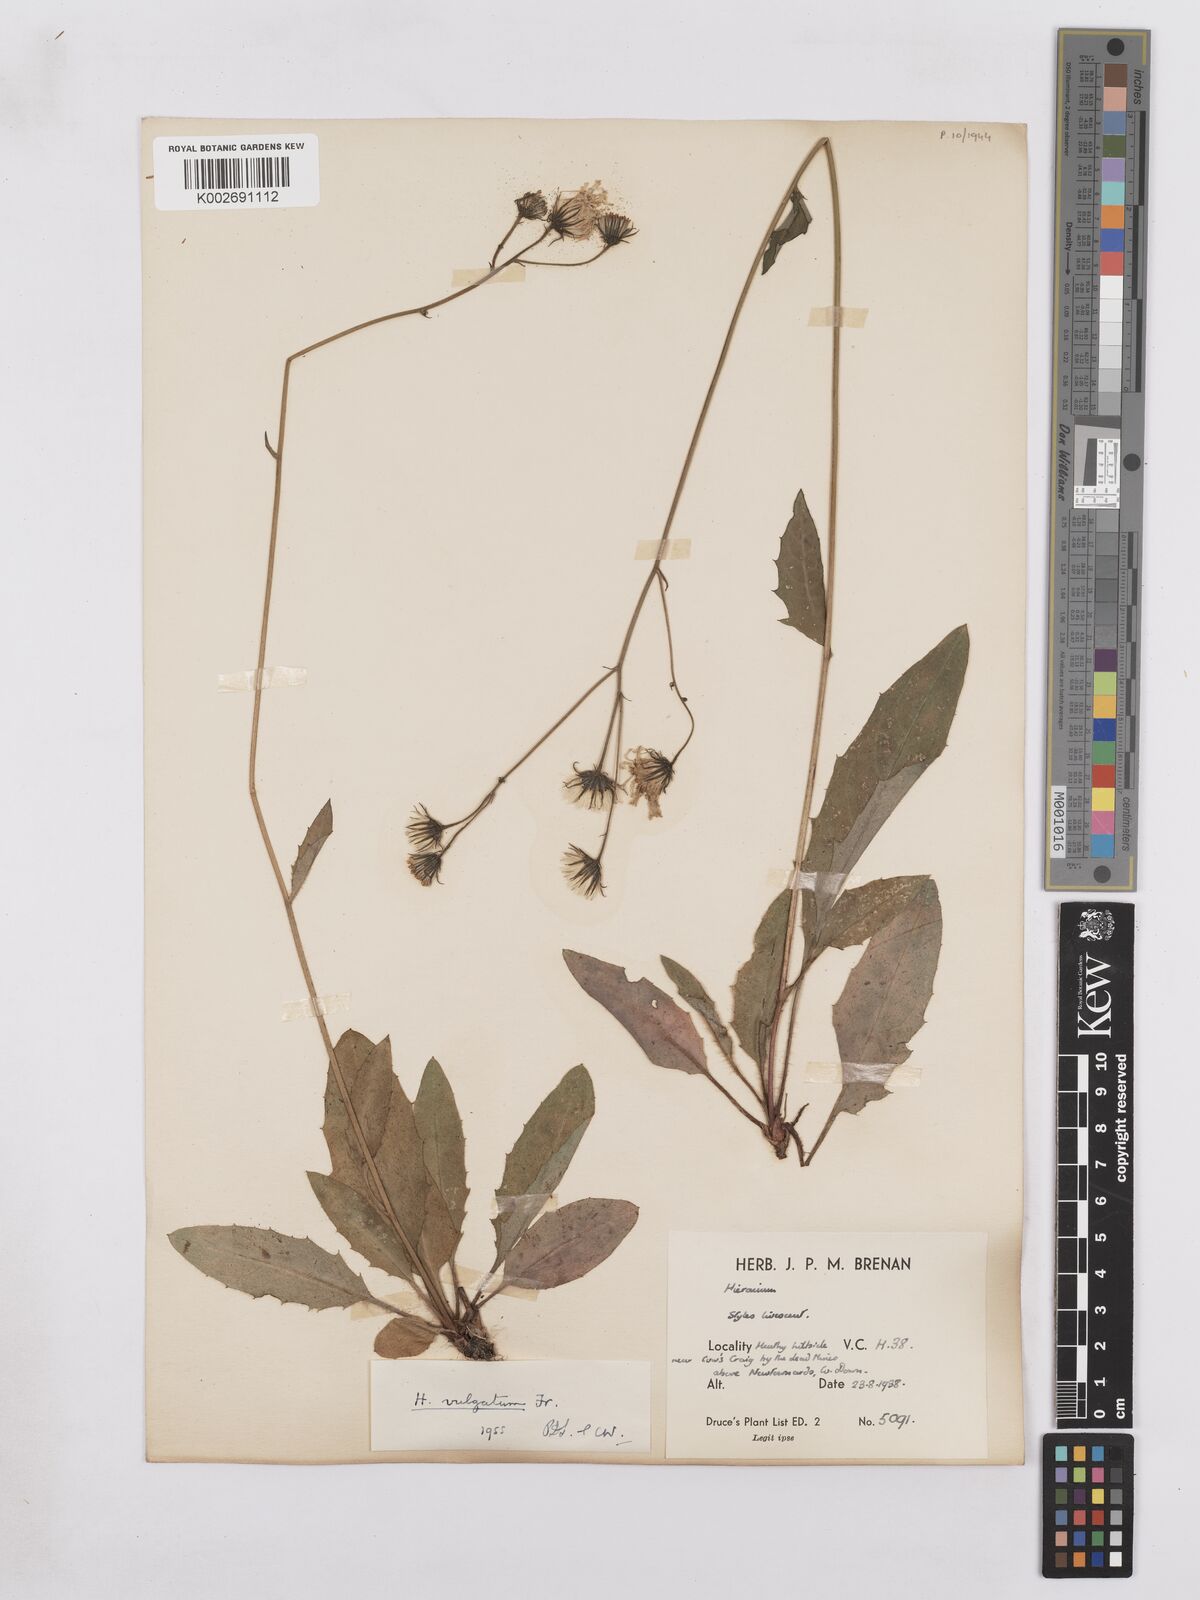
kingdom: Plantae
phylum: Tracheophyta
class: Magnoliopsida
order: Asterales
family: Asteraceae
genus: Hieracium
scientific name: Hieracium lachenalii
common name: Common hawkweed
